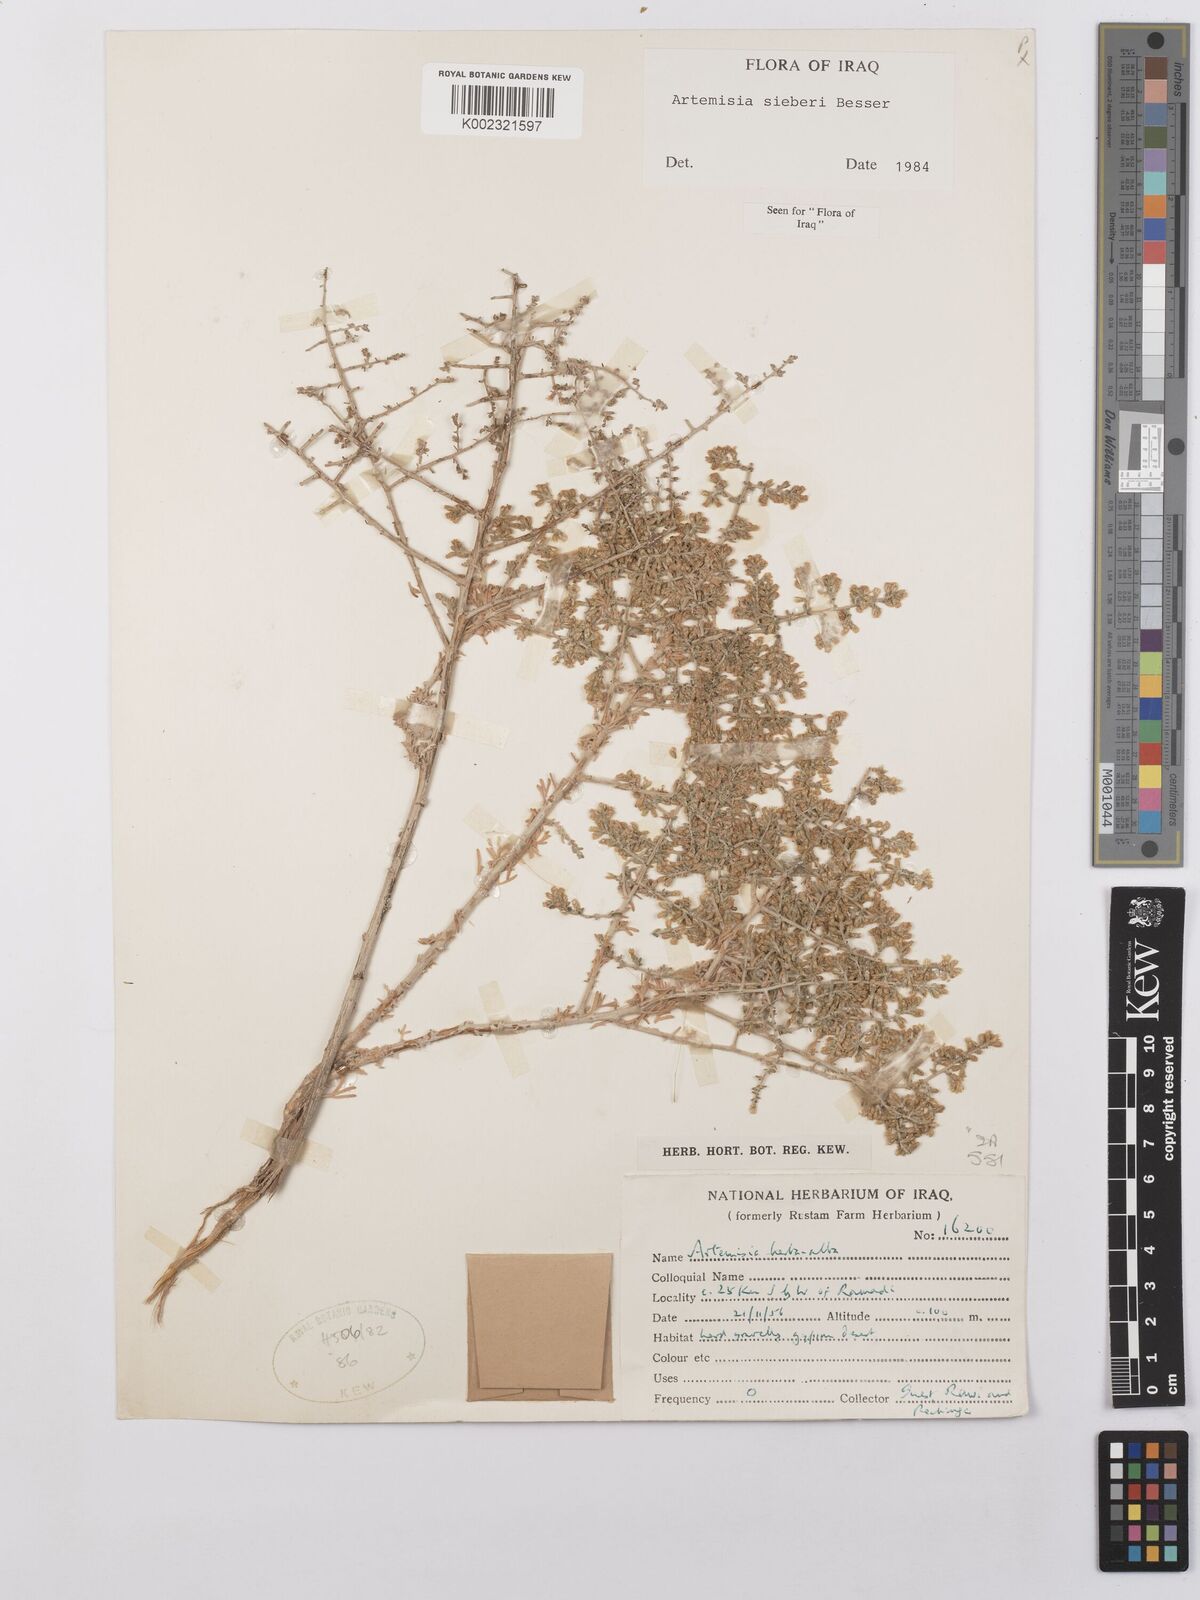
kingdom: Plantae
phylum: Tracheophyta
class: Magnoliopsida
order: Asterales
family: Asteraceae
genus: Artemisia
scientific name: Artemisia sieberi
